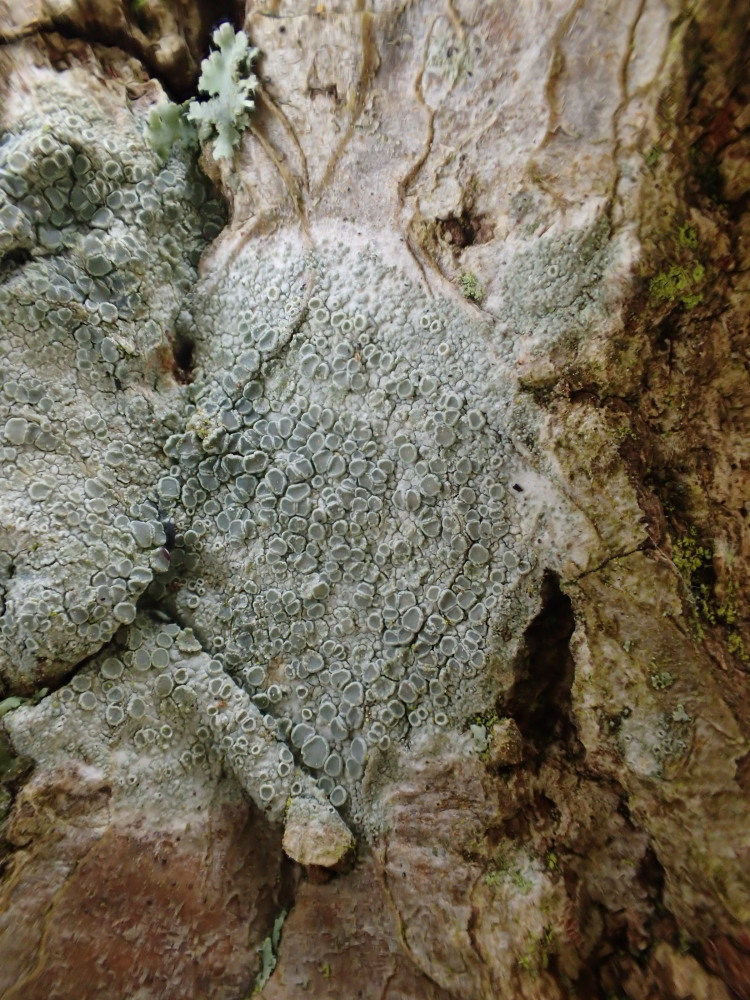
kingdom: Fungi
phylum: Ascomycota
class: Lecanoromycetes
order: Lecanorales
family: Lecanoraceae
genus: Lecanora
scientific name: Lecanora chlarotera
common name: brun kantskivelav
